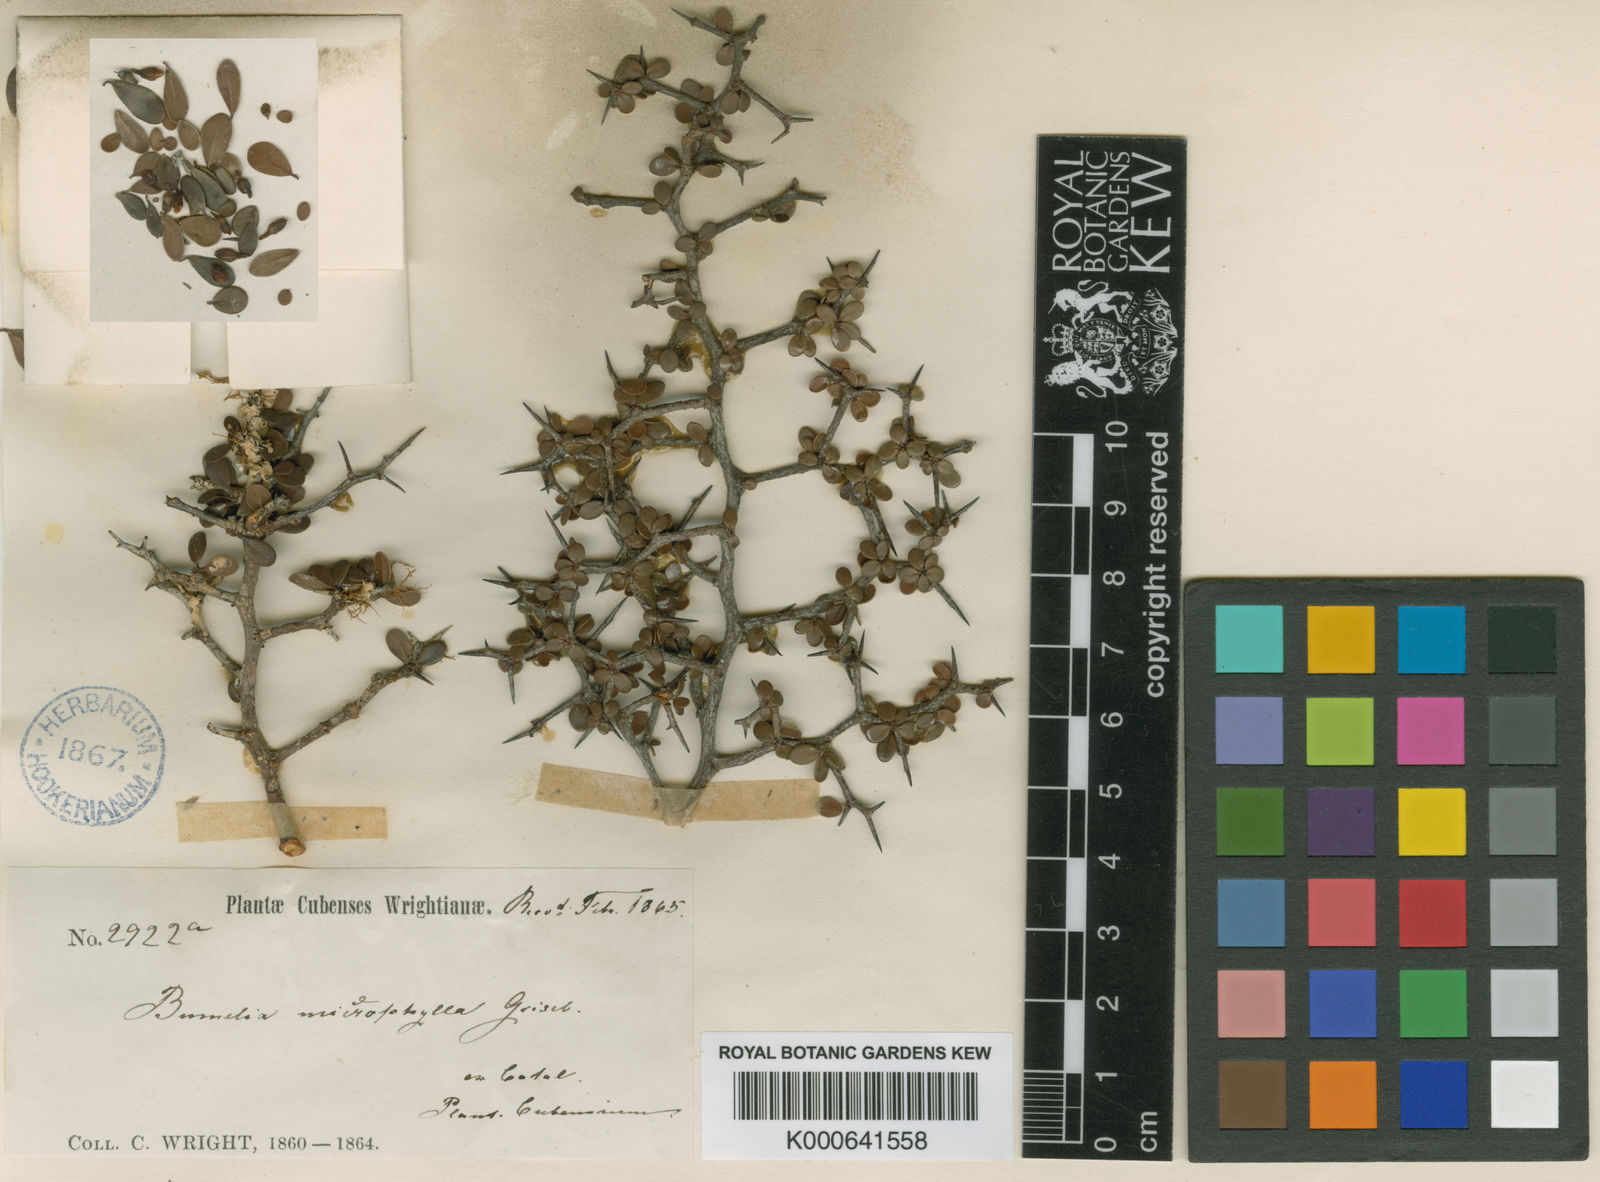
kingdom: Plantae
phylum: Tracheophyta
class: Magnoliopsida
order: Ericales
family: Sapotaceae
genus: Sideroxylon
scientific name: Sideroxylon horridum
